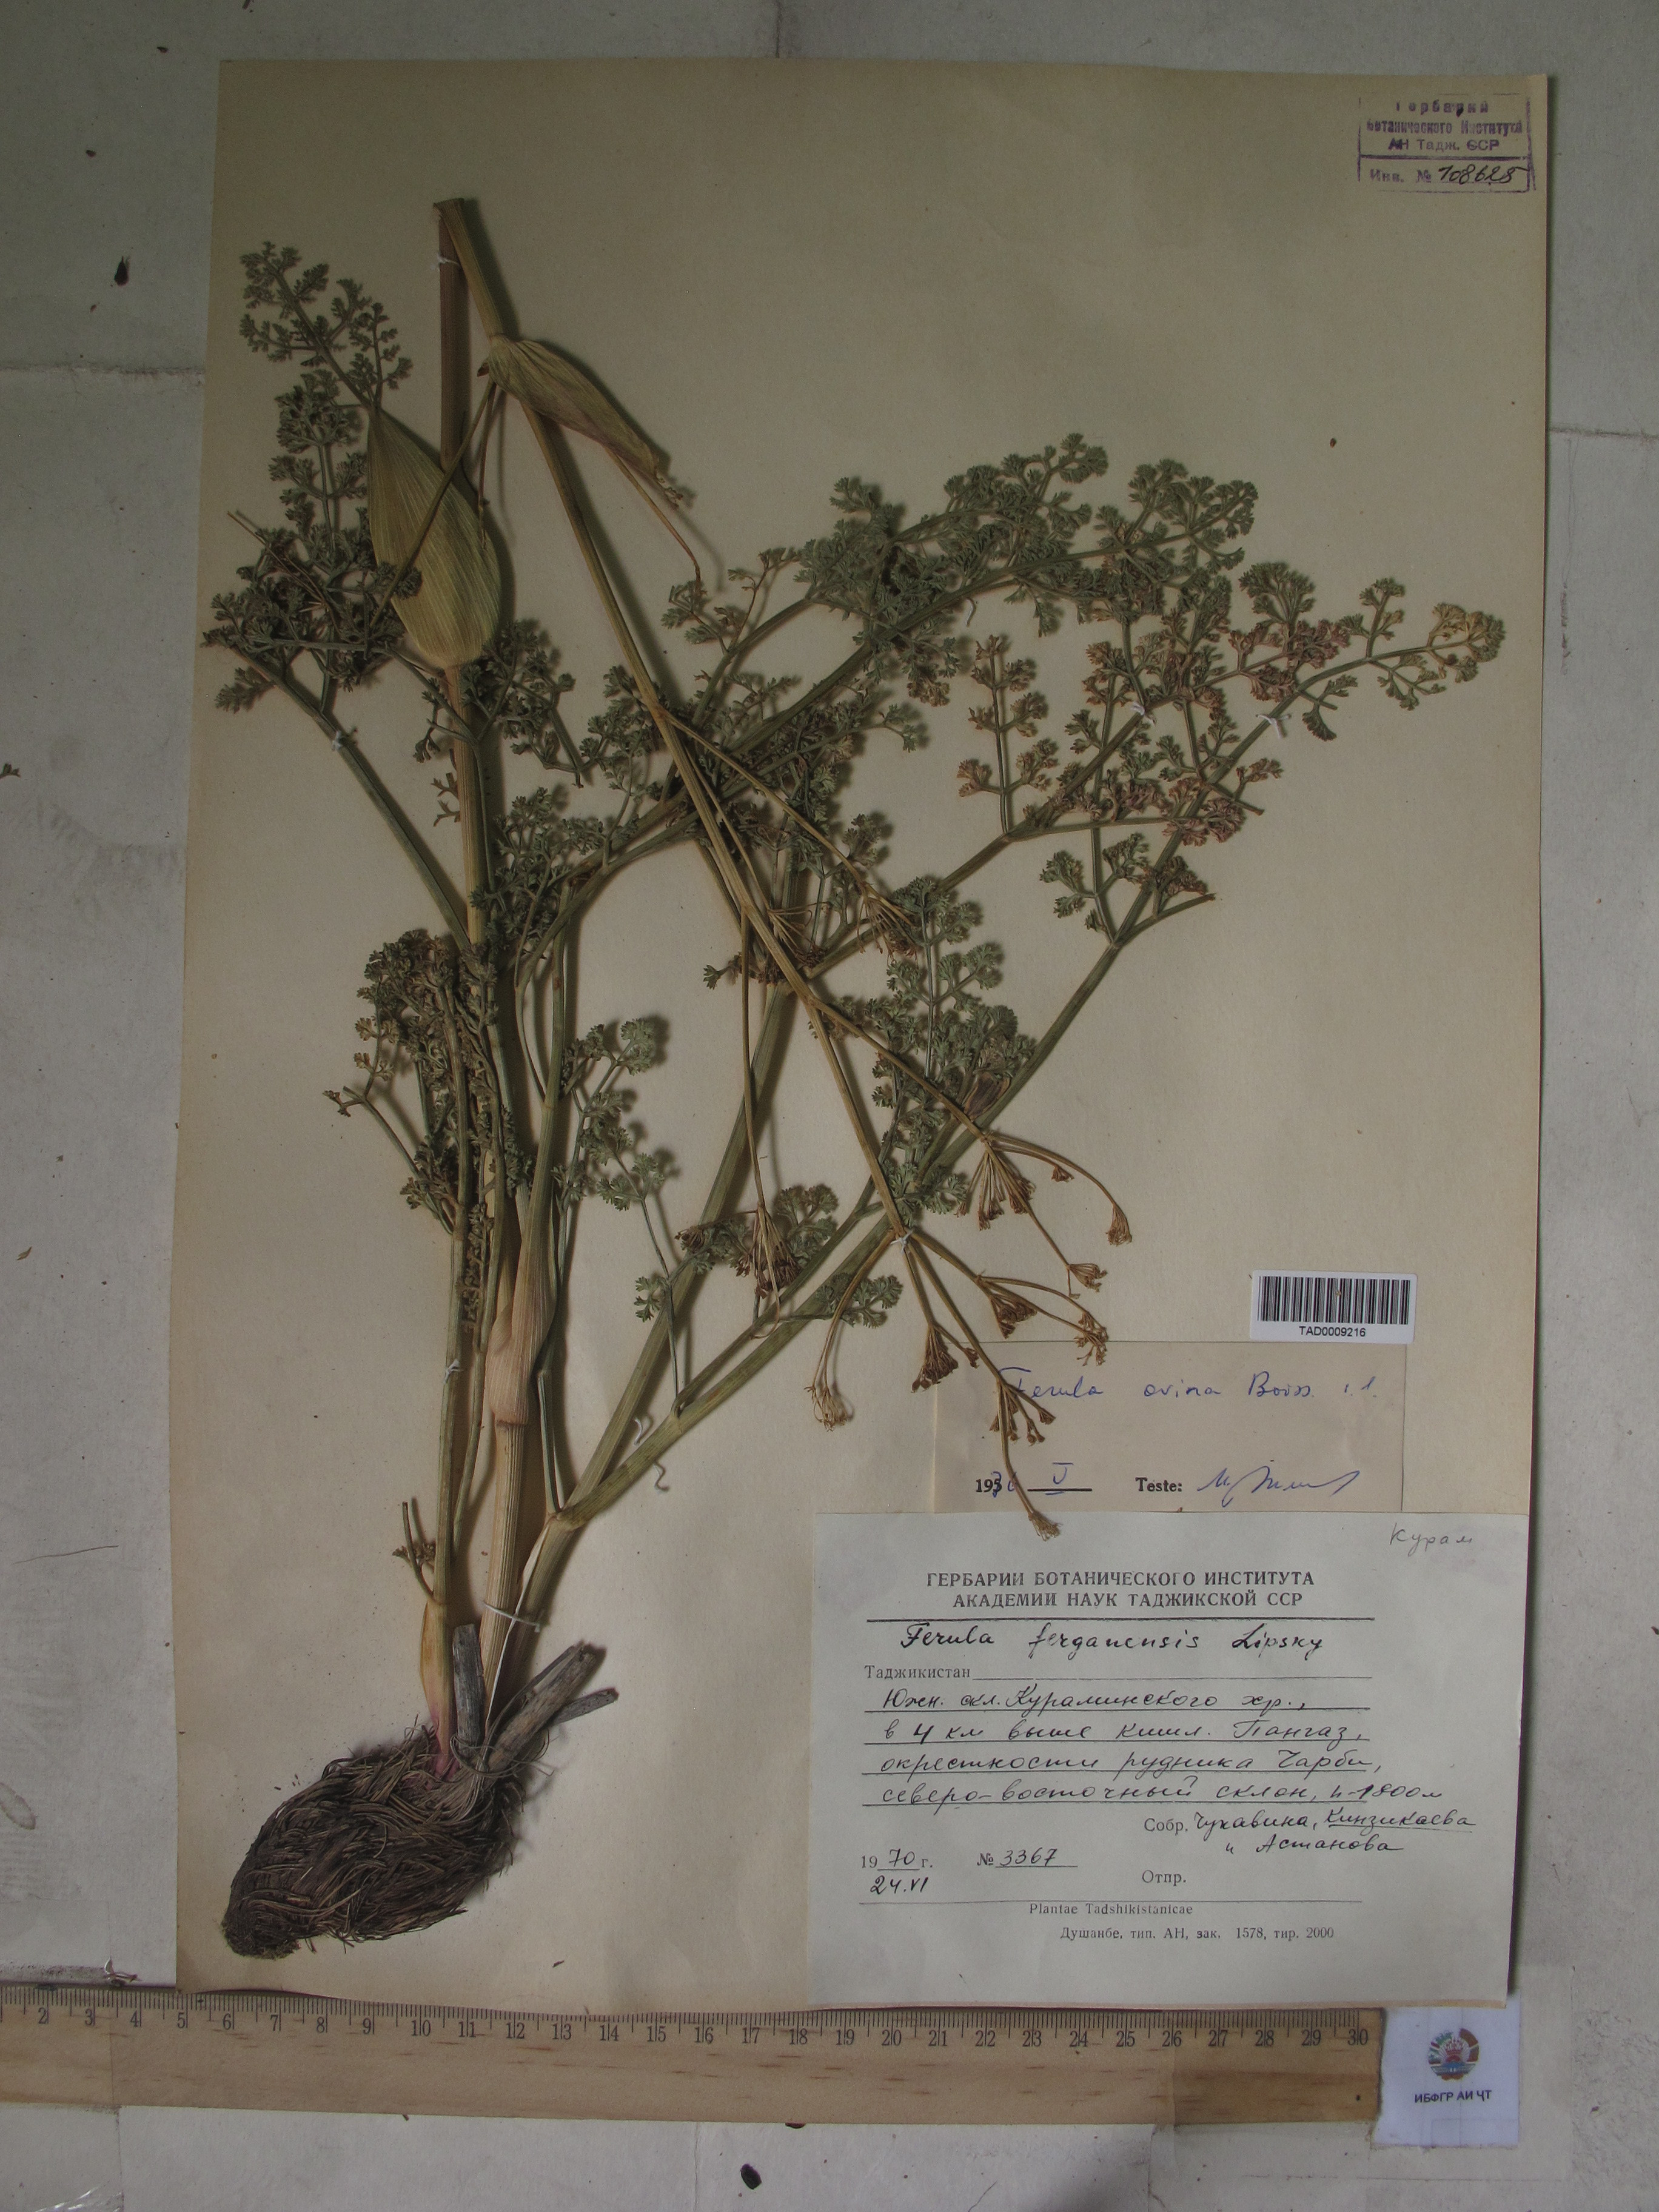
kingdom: Plantae
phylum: Tracheophyta
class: Magnoliopsida
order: Apiales
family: Apiaceae
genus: Ferula
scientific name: Ferula ovina
